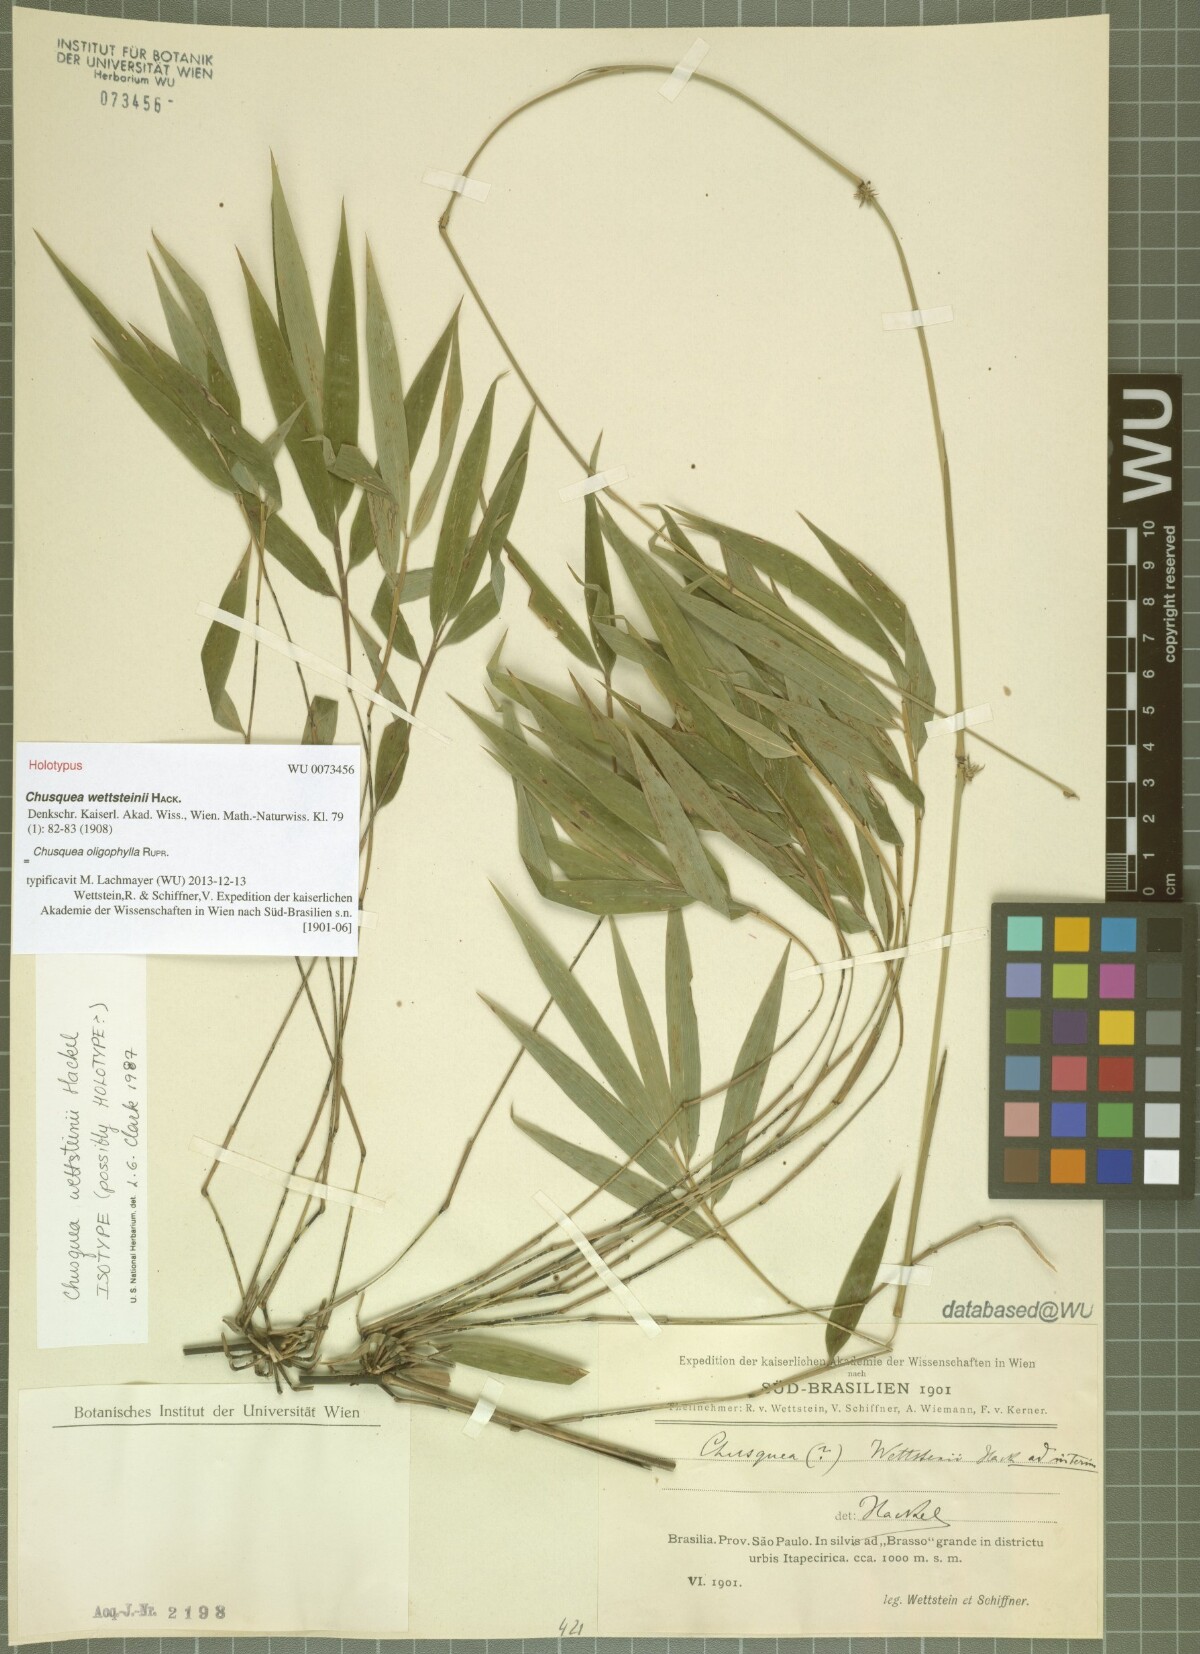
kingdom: Plantae
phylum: Tracheophyta
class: Liliopsida
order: Poales
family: Poaceae
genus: Chusquea
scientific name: Chusquea oligophylla
